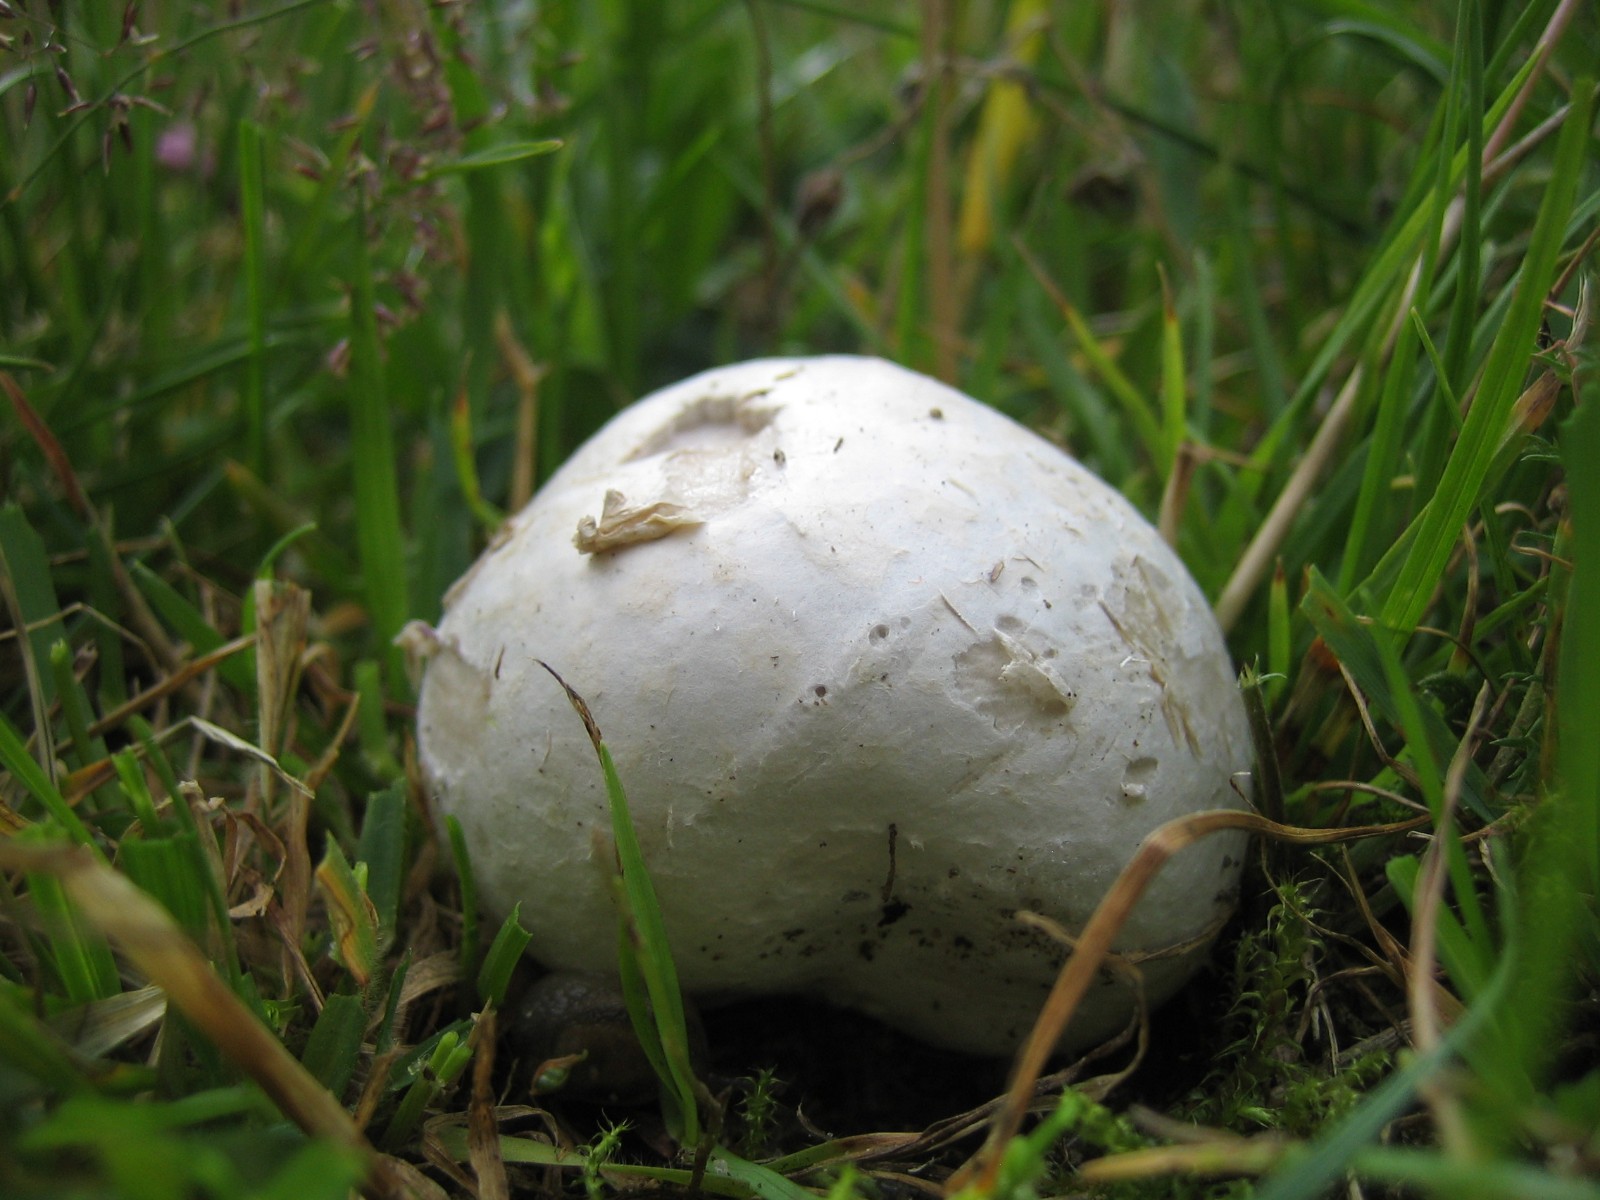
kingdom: Fungi
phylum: Basidiomycota
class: Agaricomycetes
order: Agaricales
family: Lycoperdaceae
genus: Bovista
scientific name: Bovista
